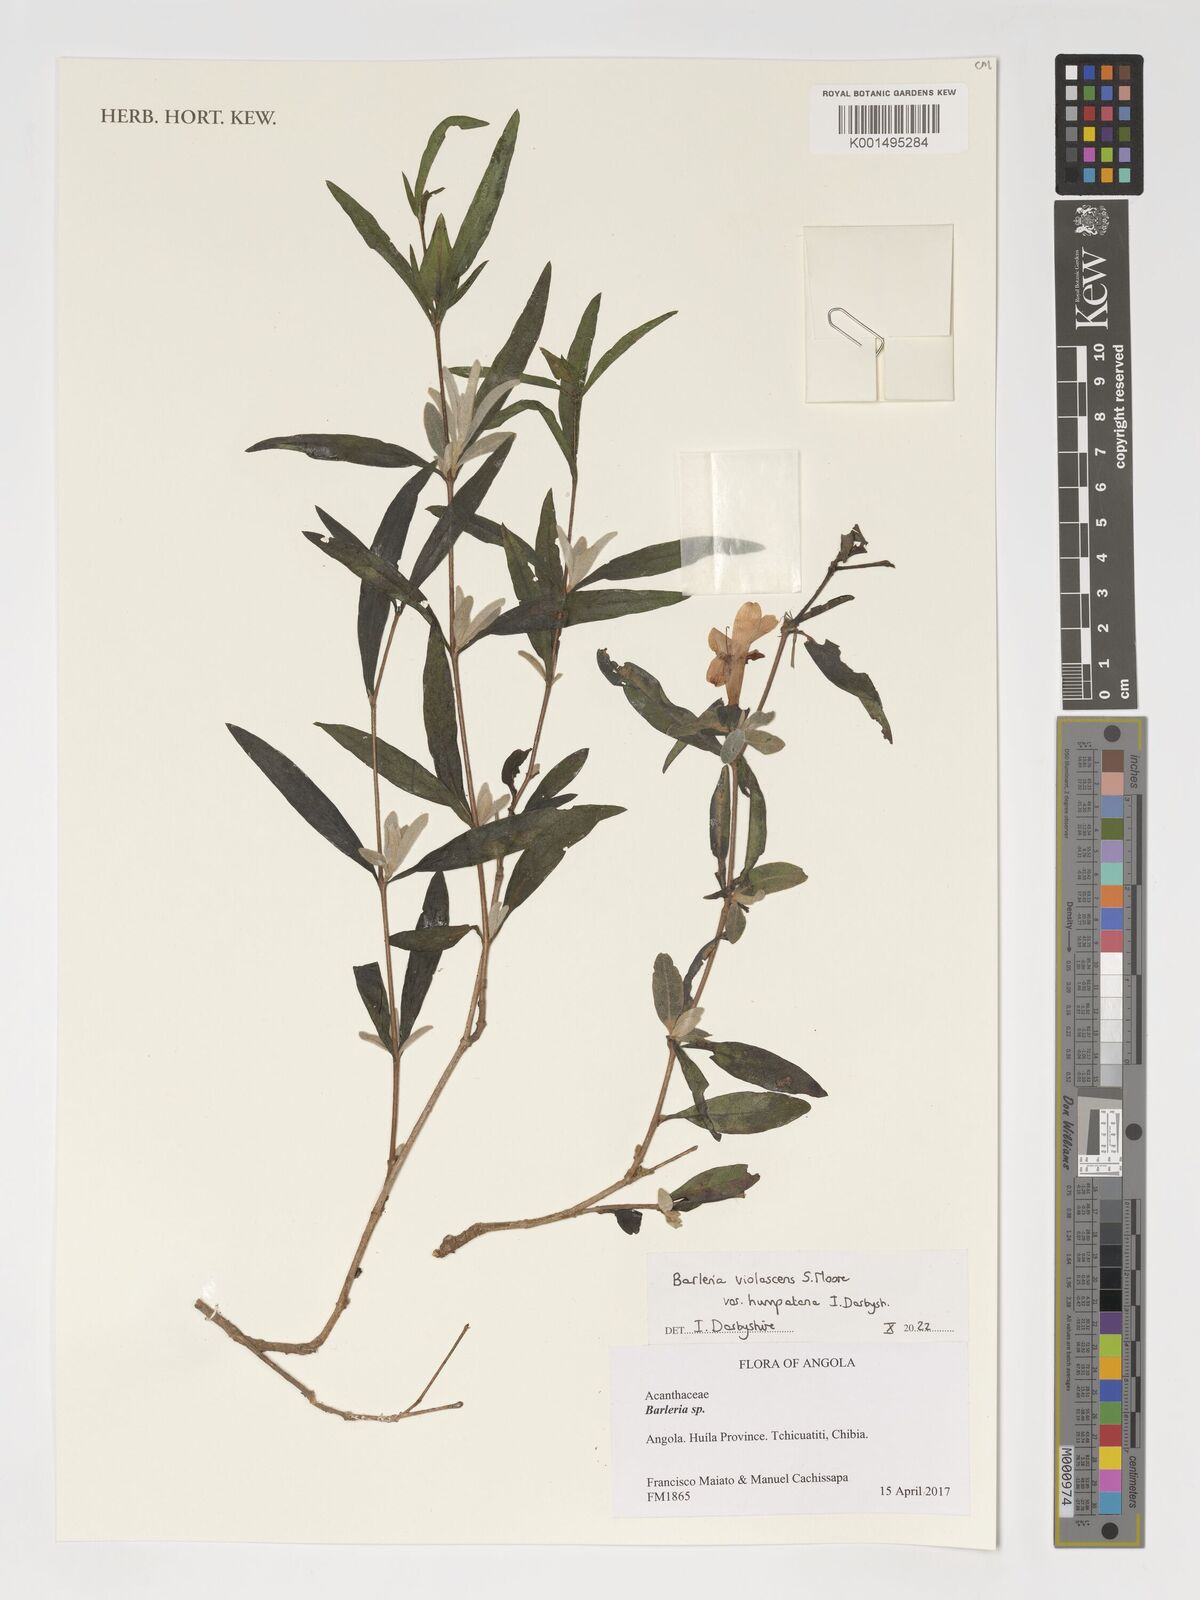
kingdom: Plantae
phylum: Tracheophyta
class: Magnoliopsida
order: Lamiales
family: Acanthaceae
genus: Barleria
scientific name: Barleria violascens
